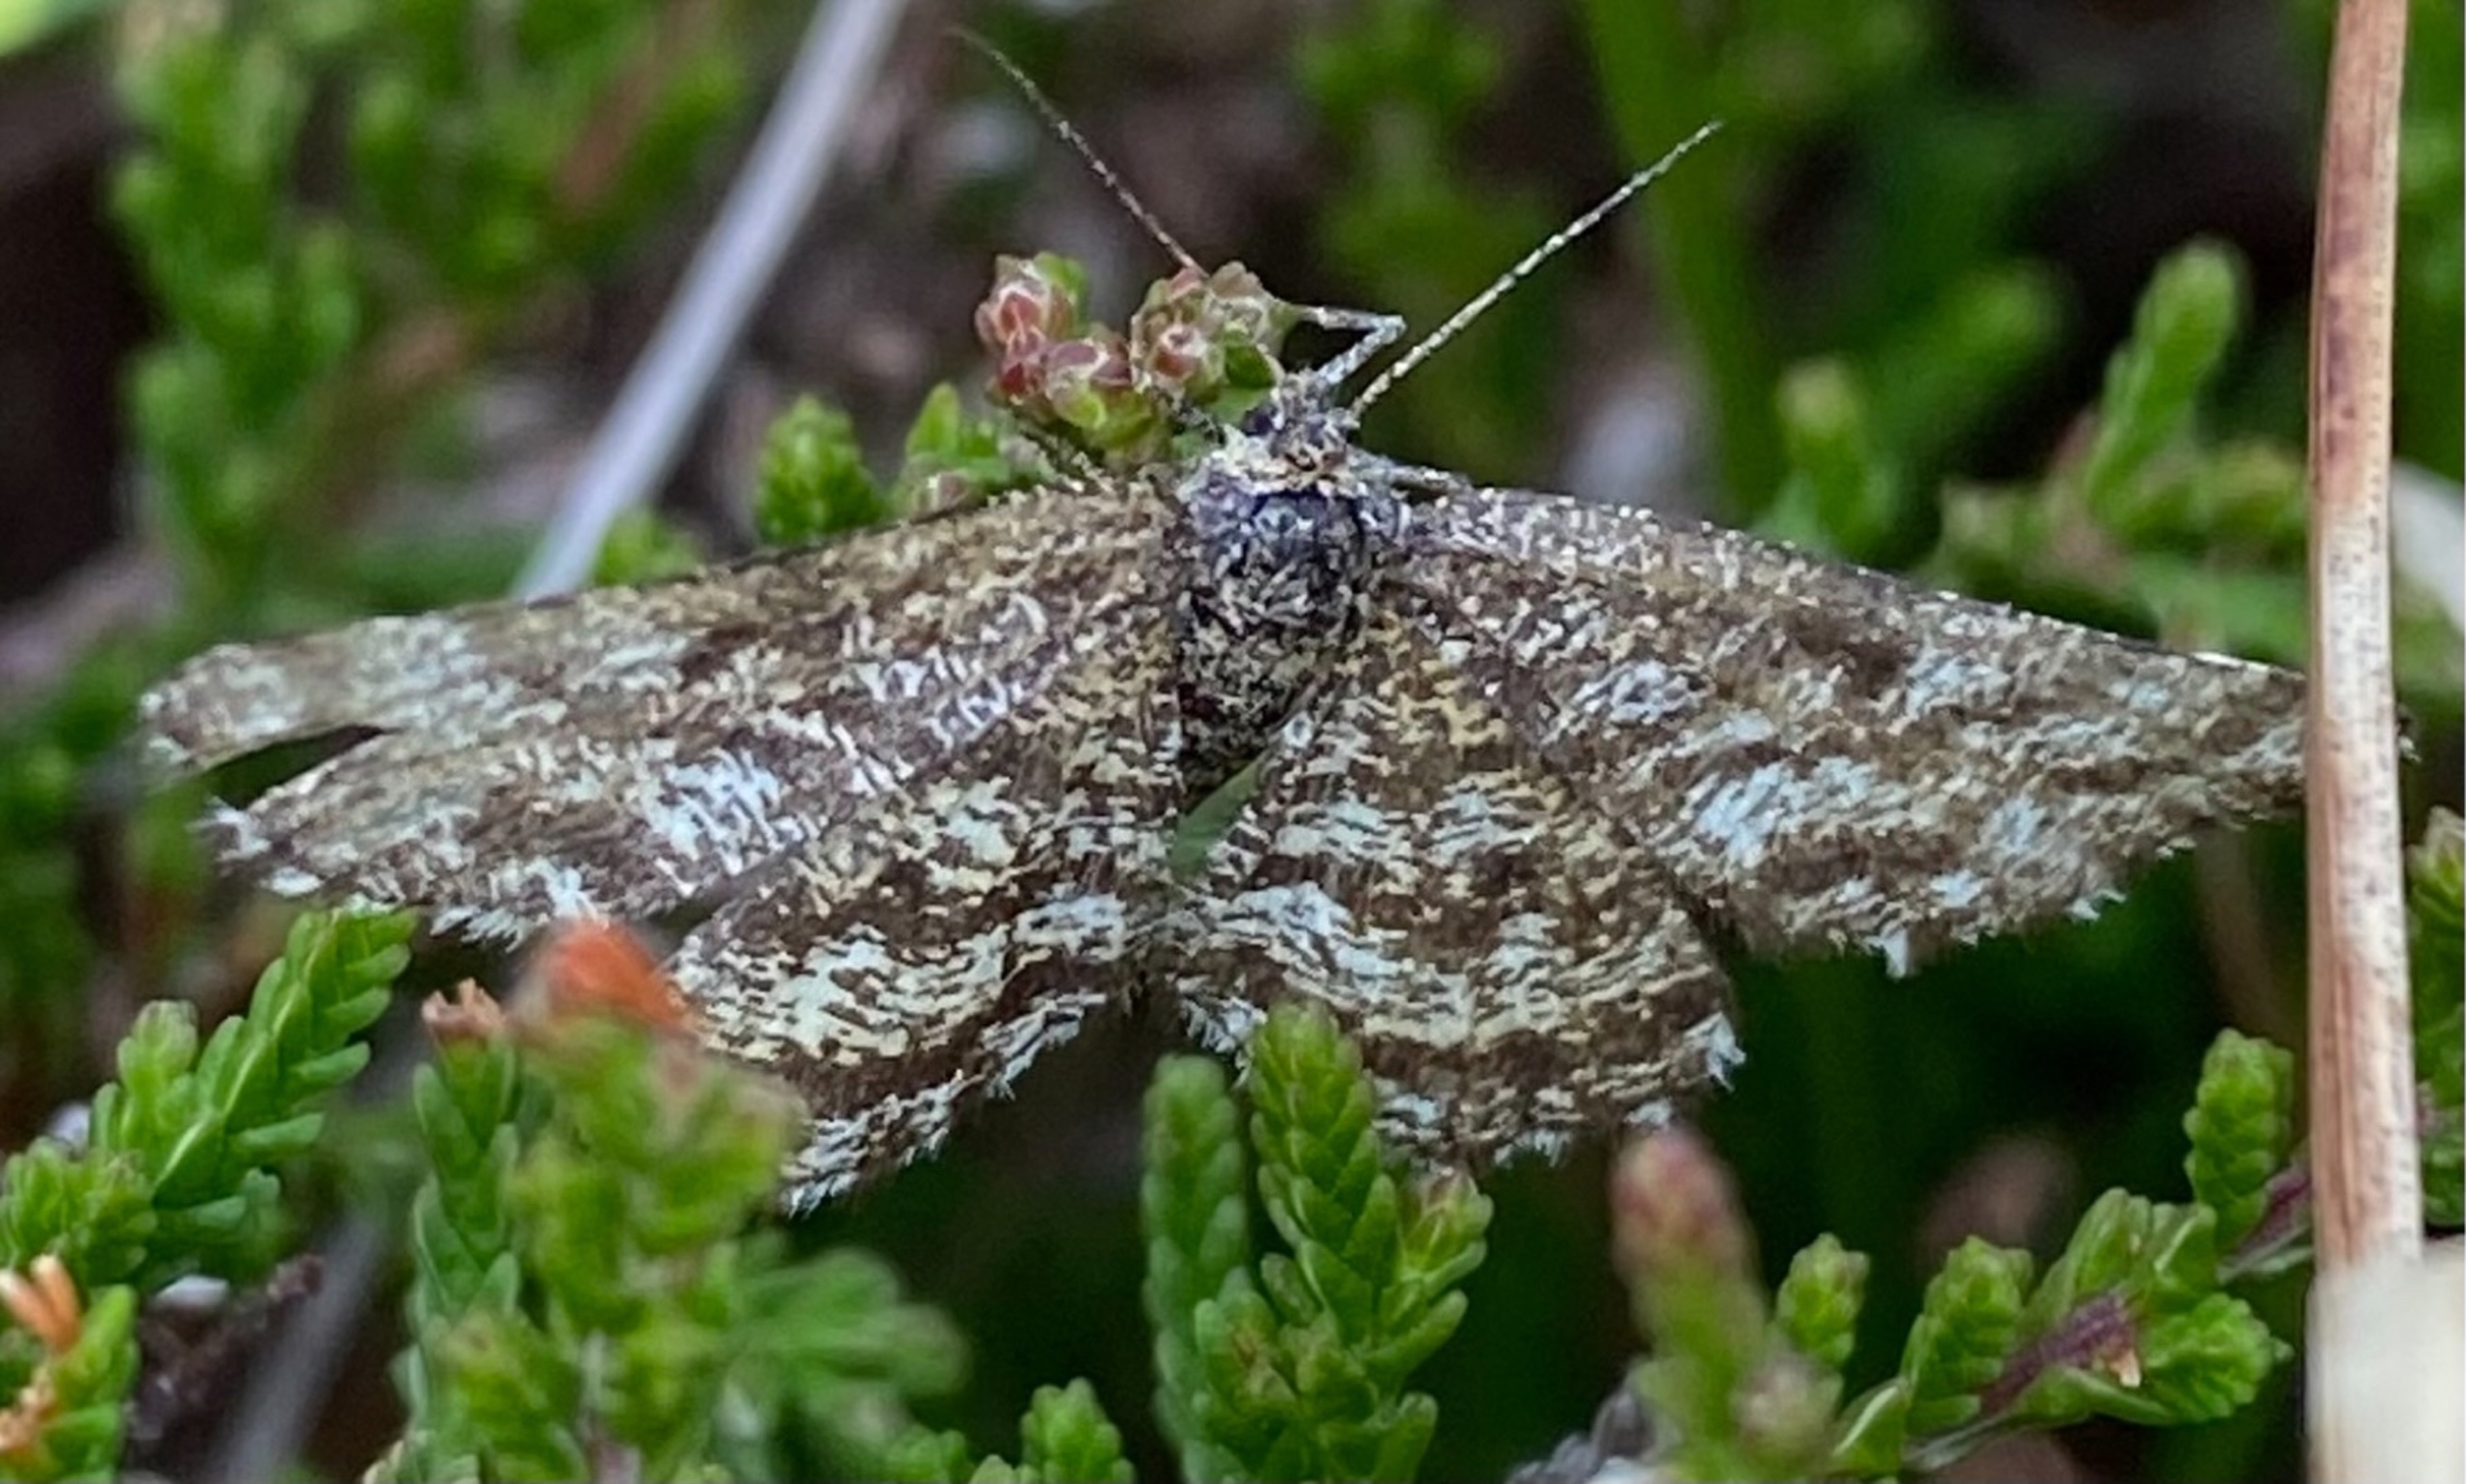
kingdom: Animalia
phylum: Arthropoda
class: Insecta
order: Lepidoptera
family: Geometridae
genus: Ematurga
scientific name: Ematurga atomaria
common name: Lyngmåler
